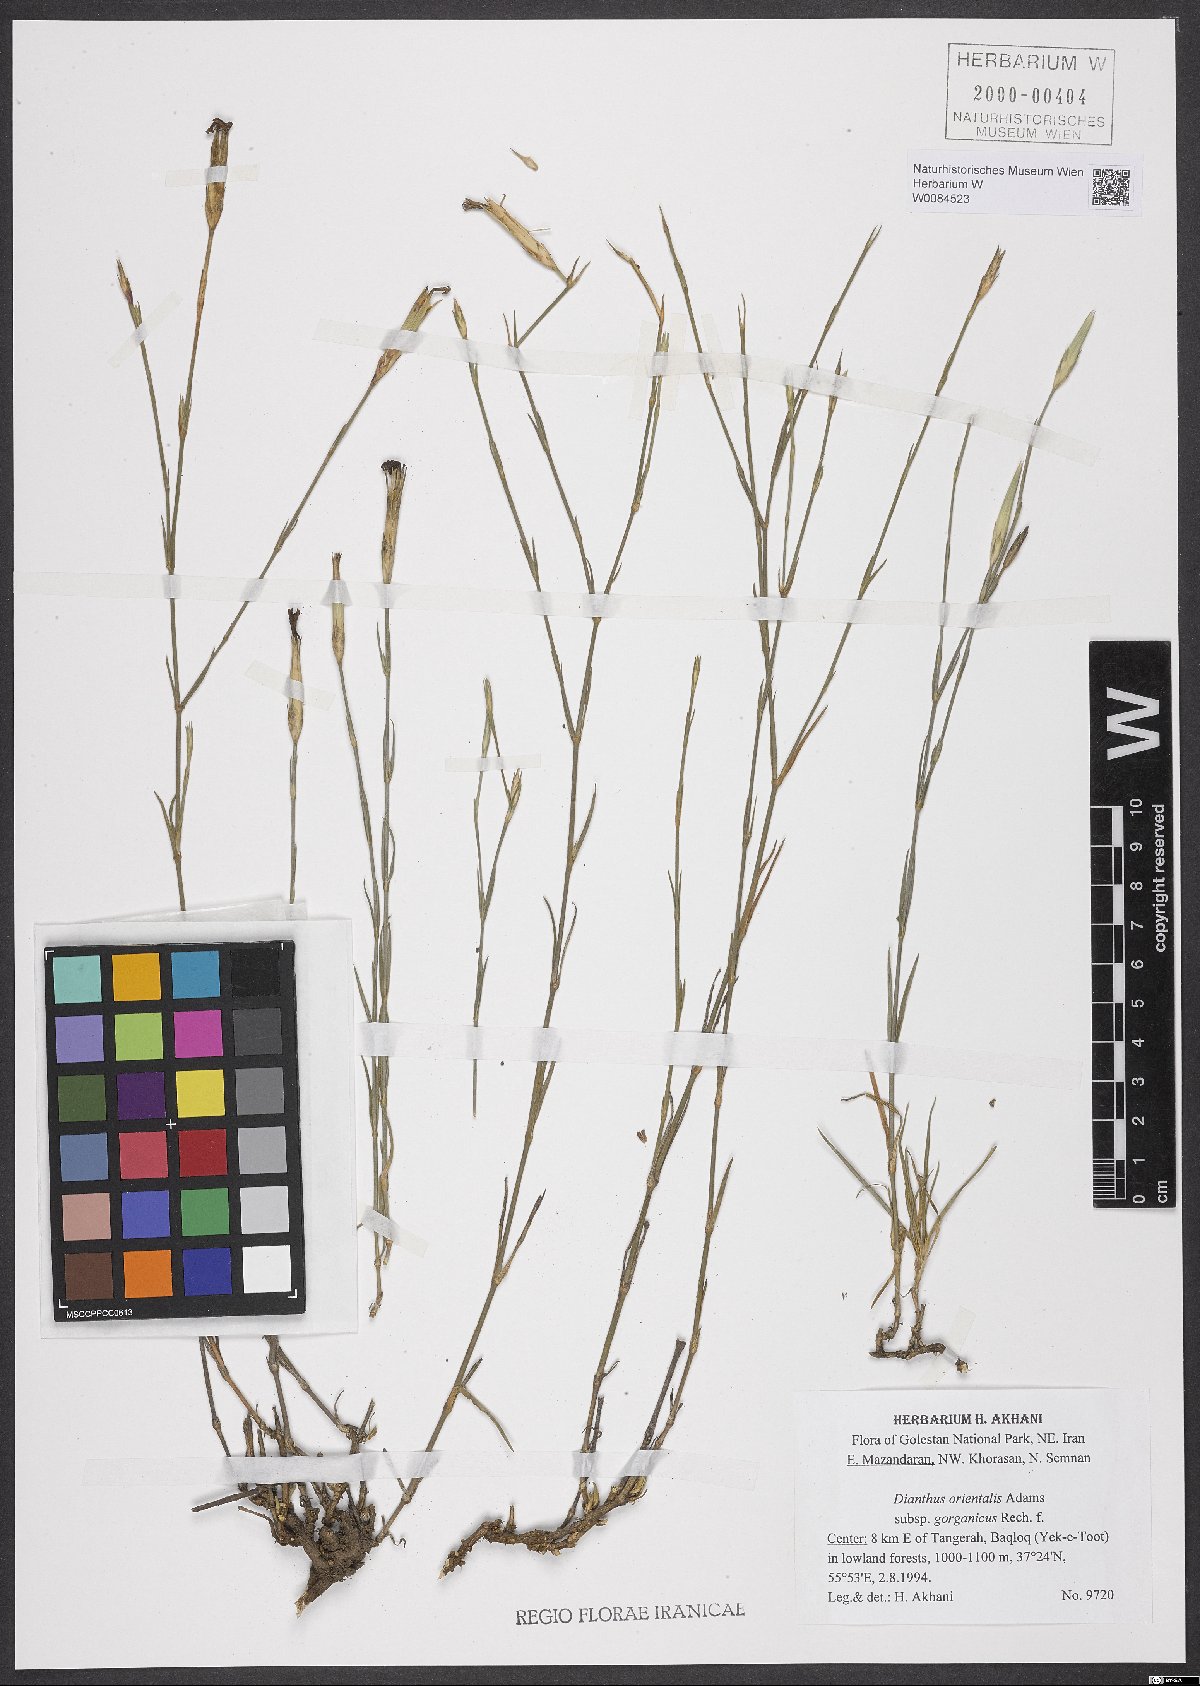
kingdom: Plantae
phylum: Tracheophyta
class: Magnoliopsida
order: Caryophyllales
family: Caryophyllaceae
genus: Dianthus
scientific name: Dianthus orientalis
